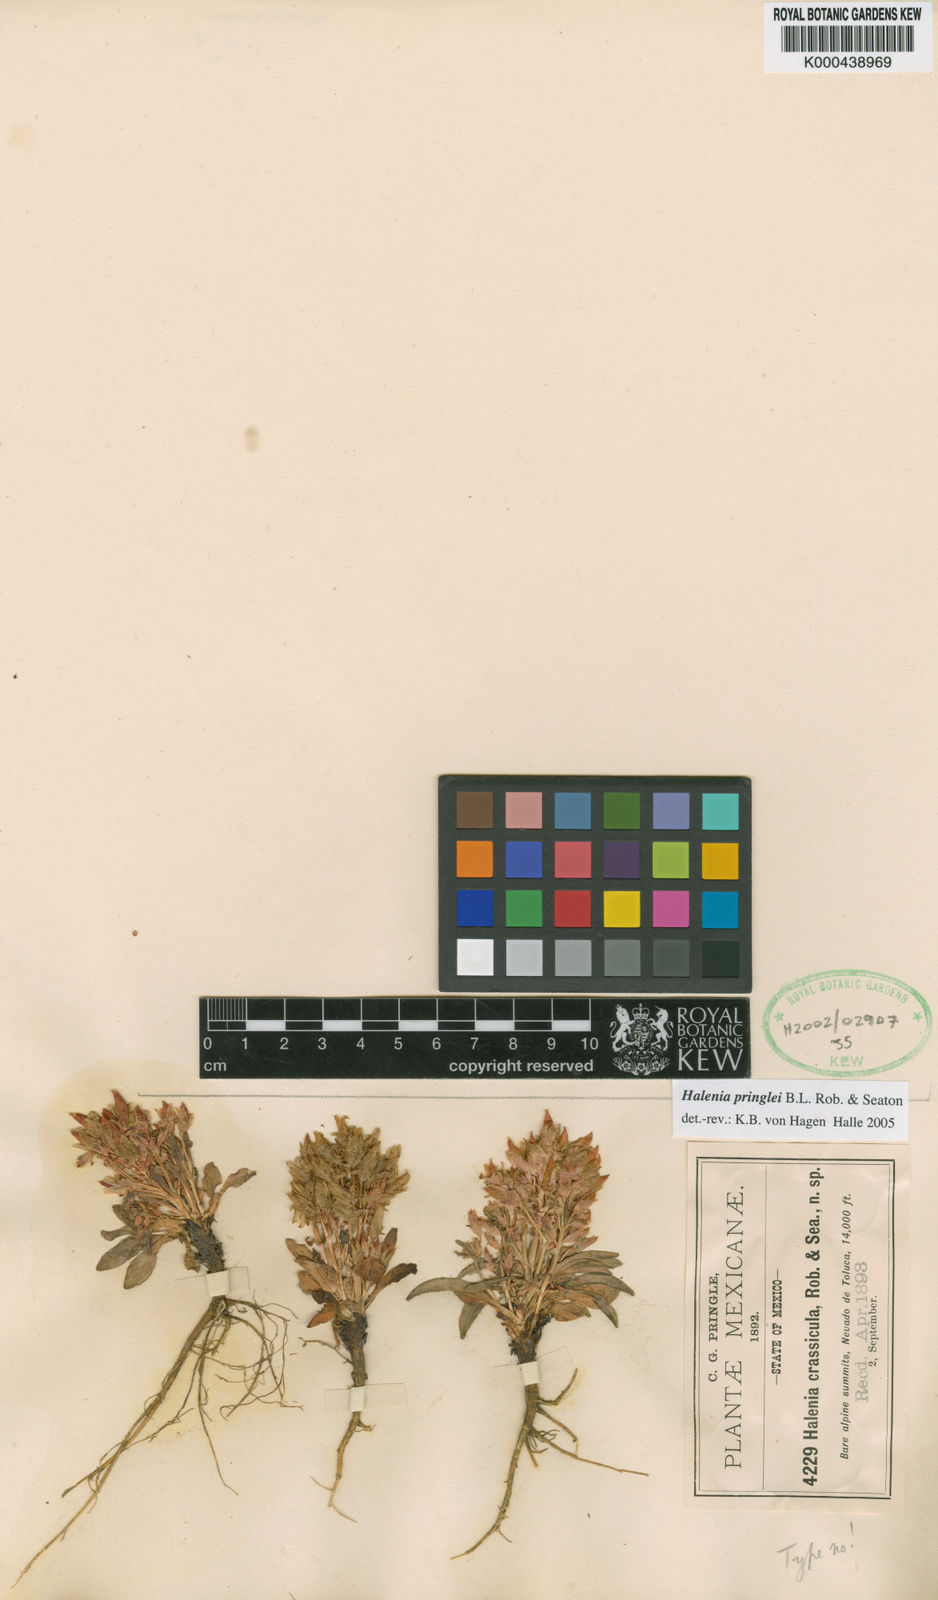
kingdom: Plantae
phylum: Tracheophyta
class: Magnoliopsida
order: Gentianales
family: Gentianaceae
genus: Halenia
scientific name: Halenia pringlei
